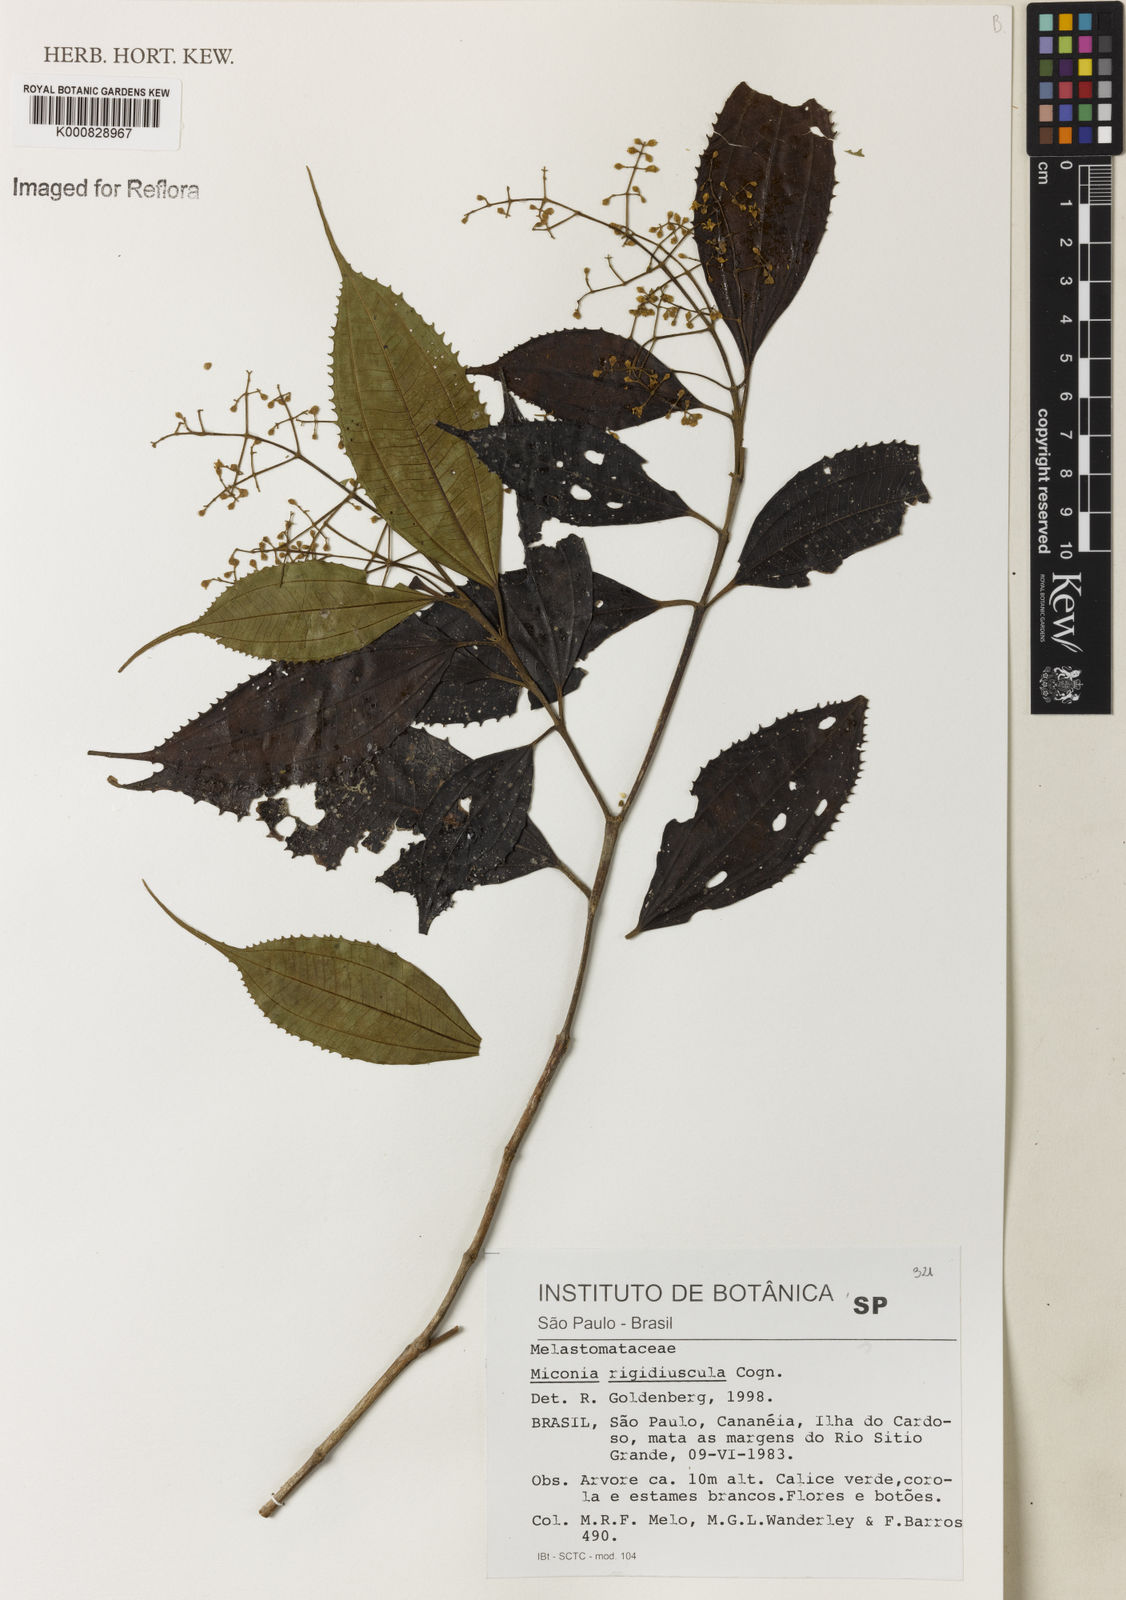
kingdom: Plantae
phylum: Tracheophyta
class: Magnoliopsida
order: Myrtales
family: Melastomataceae
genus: Miconia
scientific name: Miconia pusilliflora
